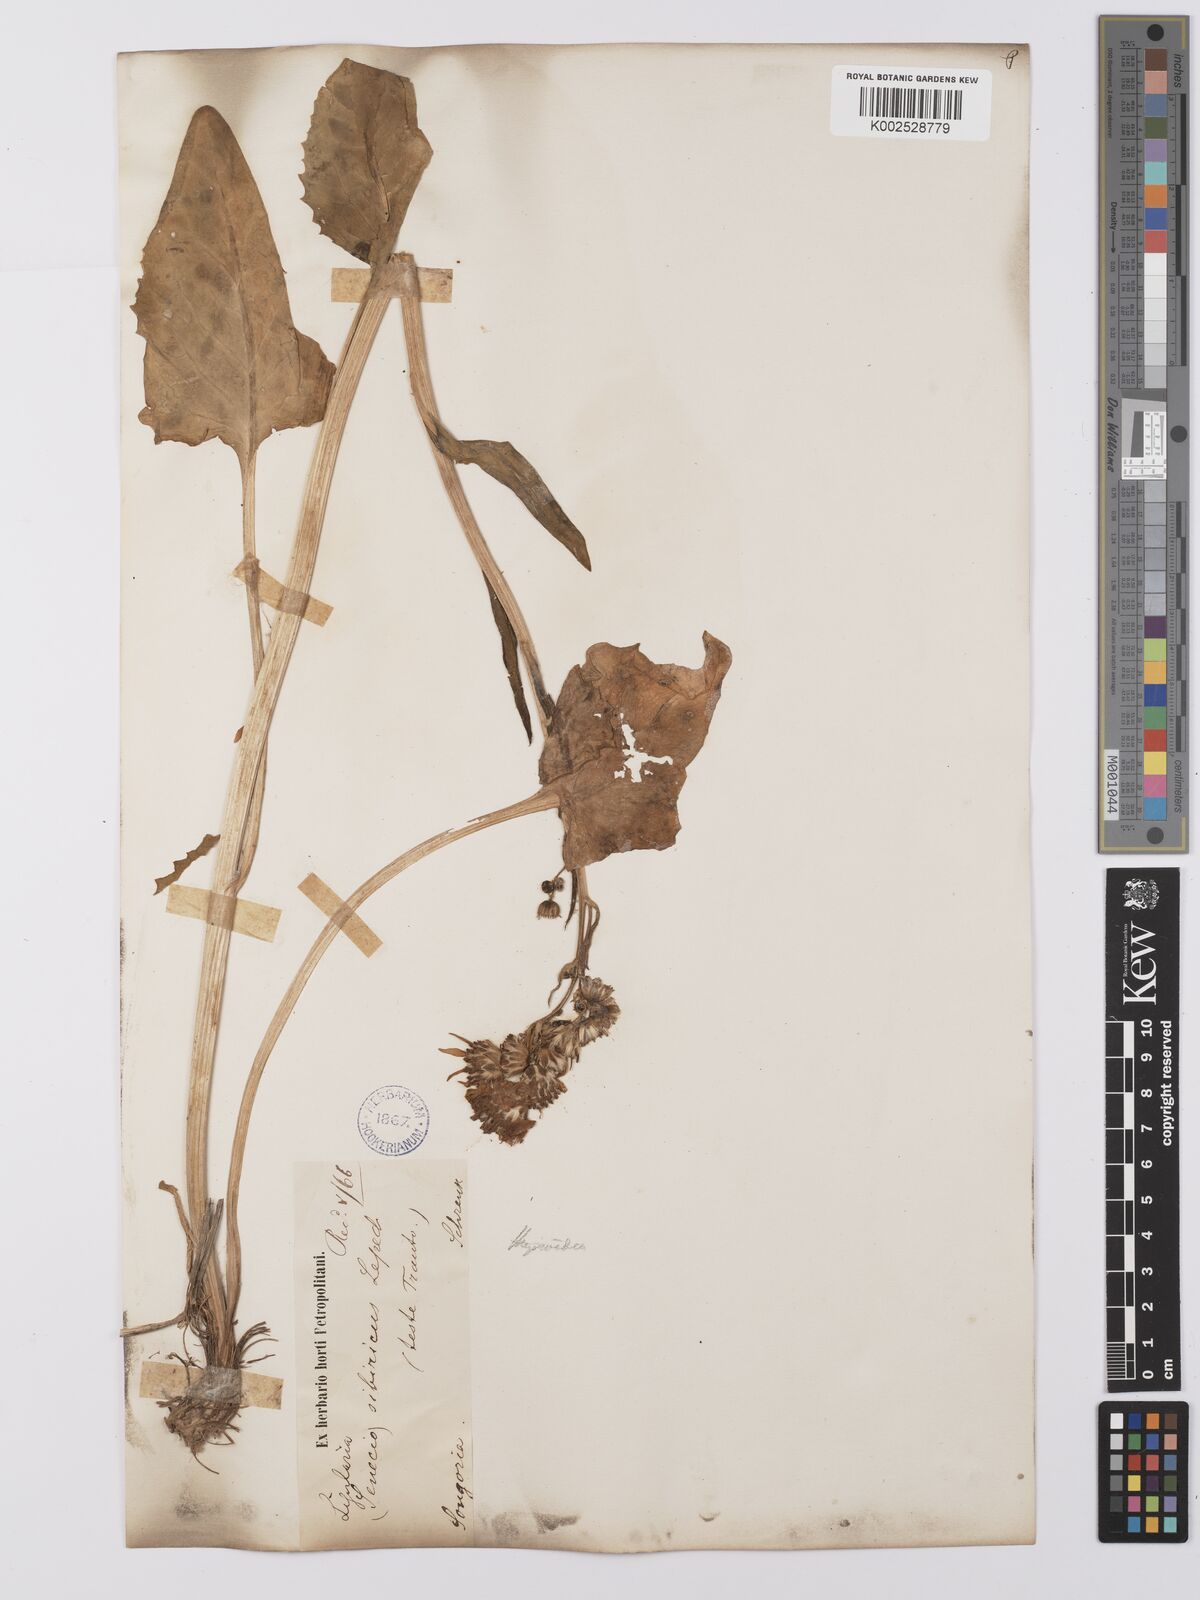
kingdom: Plantae
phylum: Tracheophyta
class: Magnoliopsida
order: Asterales
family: Asteraceae
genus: Vickifunkia
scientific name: Vickifunkia thyrsoidea
